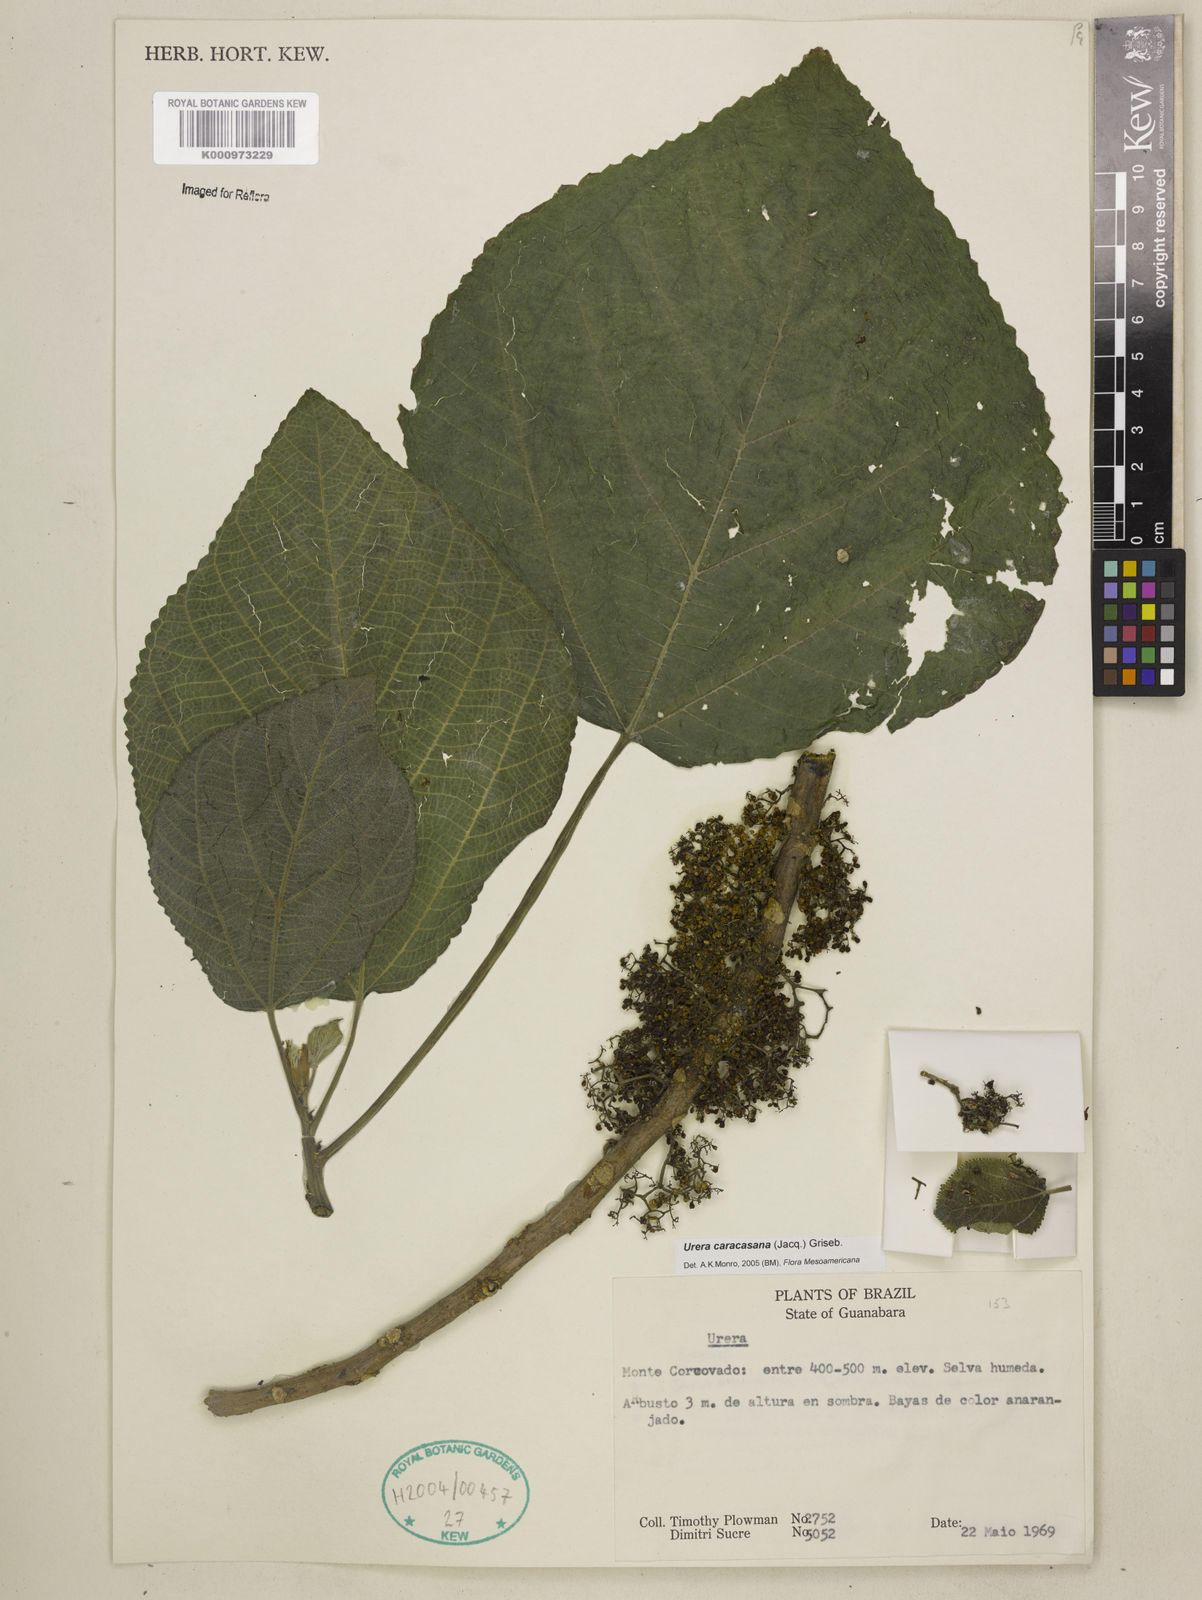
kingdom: Plantae
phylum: Tracheophyta
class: Magnoliopsida
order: Rosales
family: Urticaceae
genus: Urera
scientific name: Urera caracasana
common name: Flameberry
